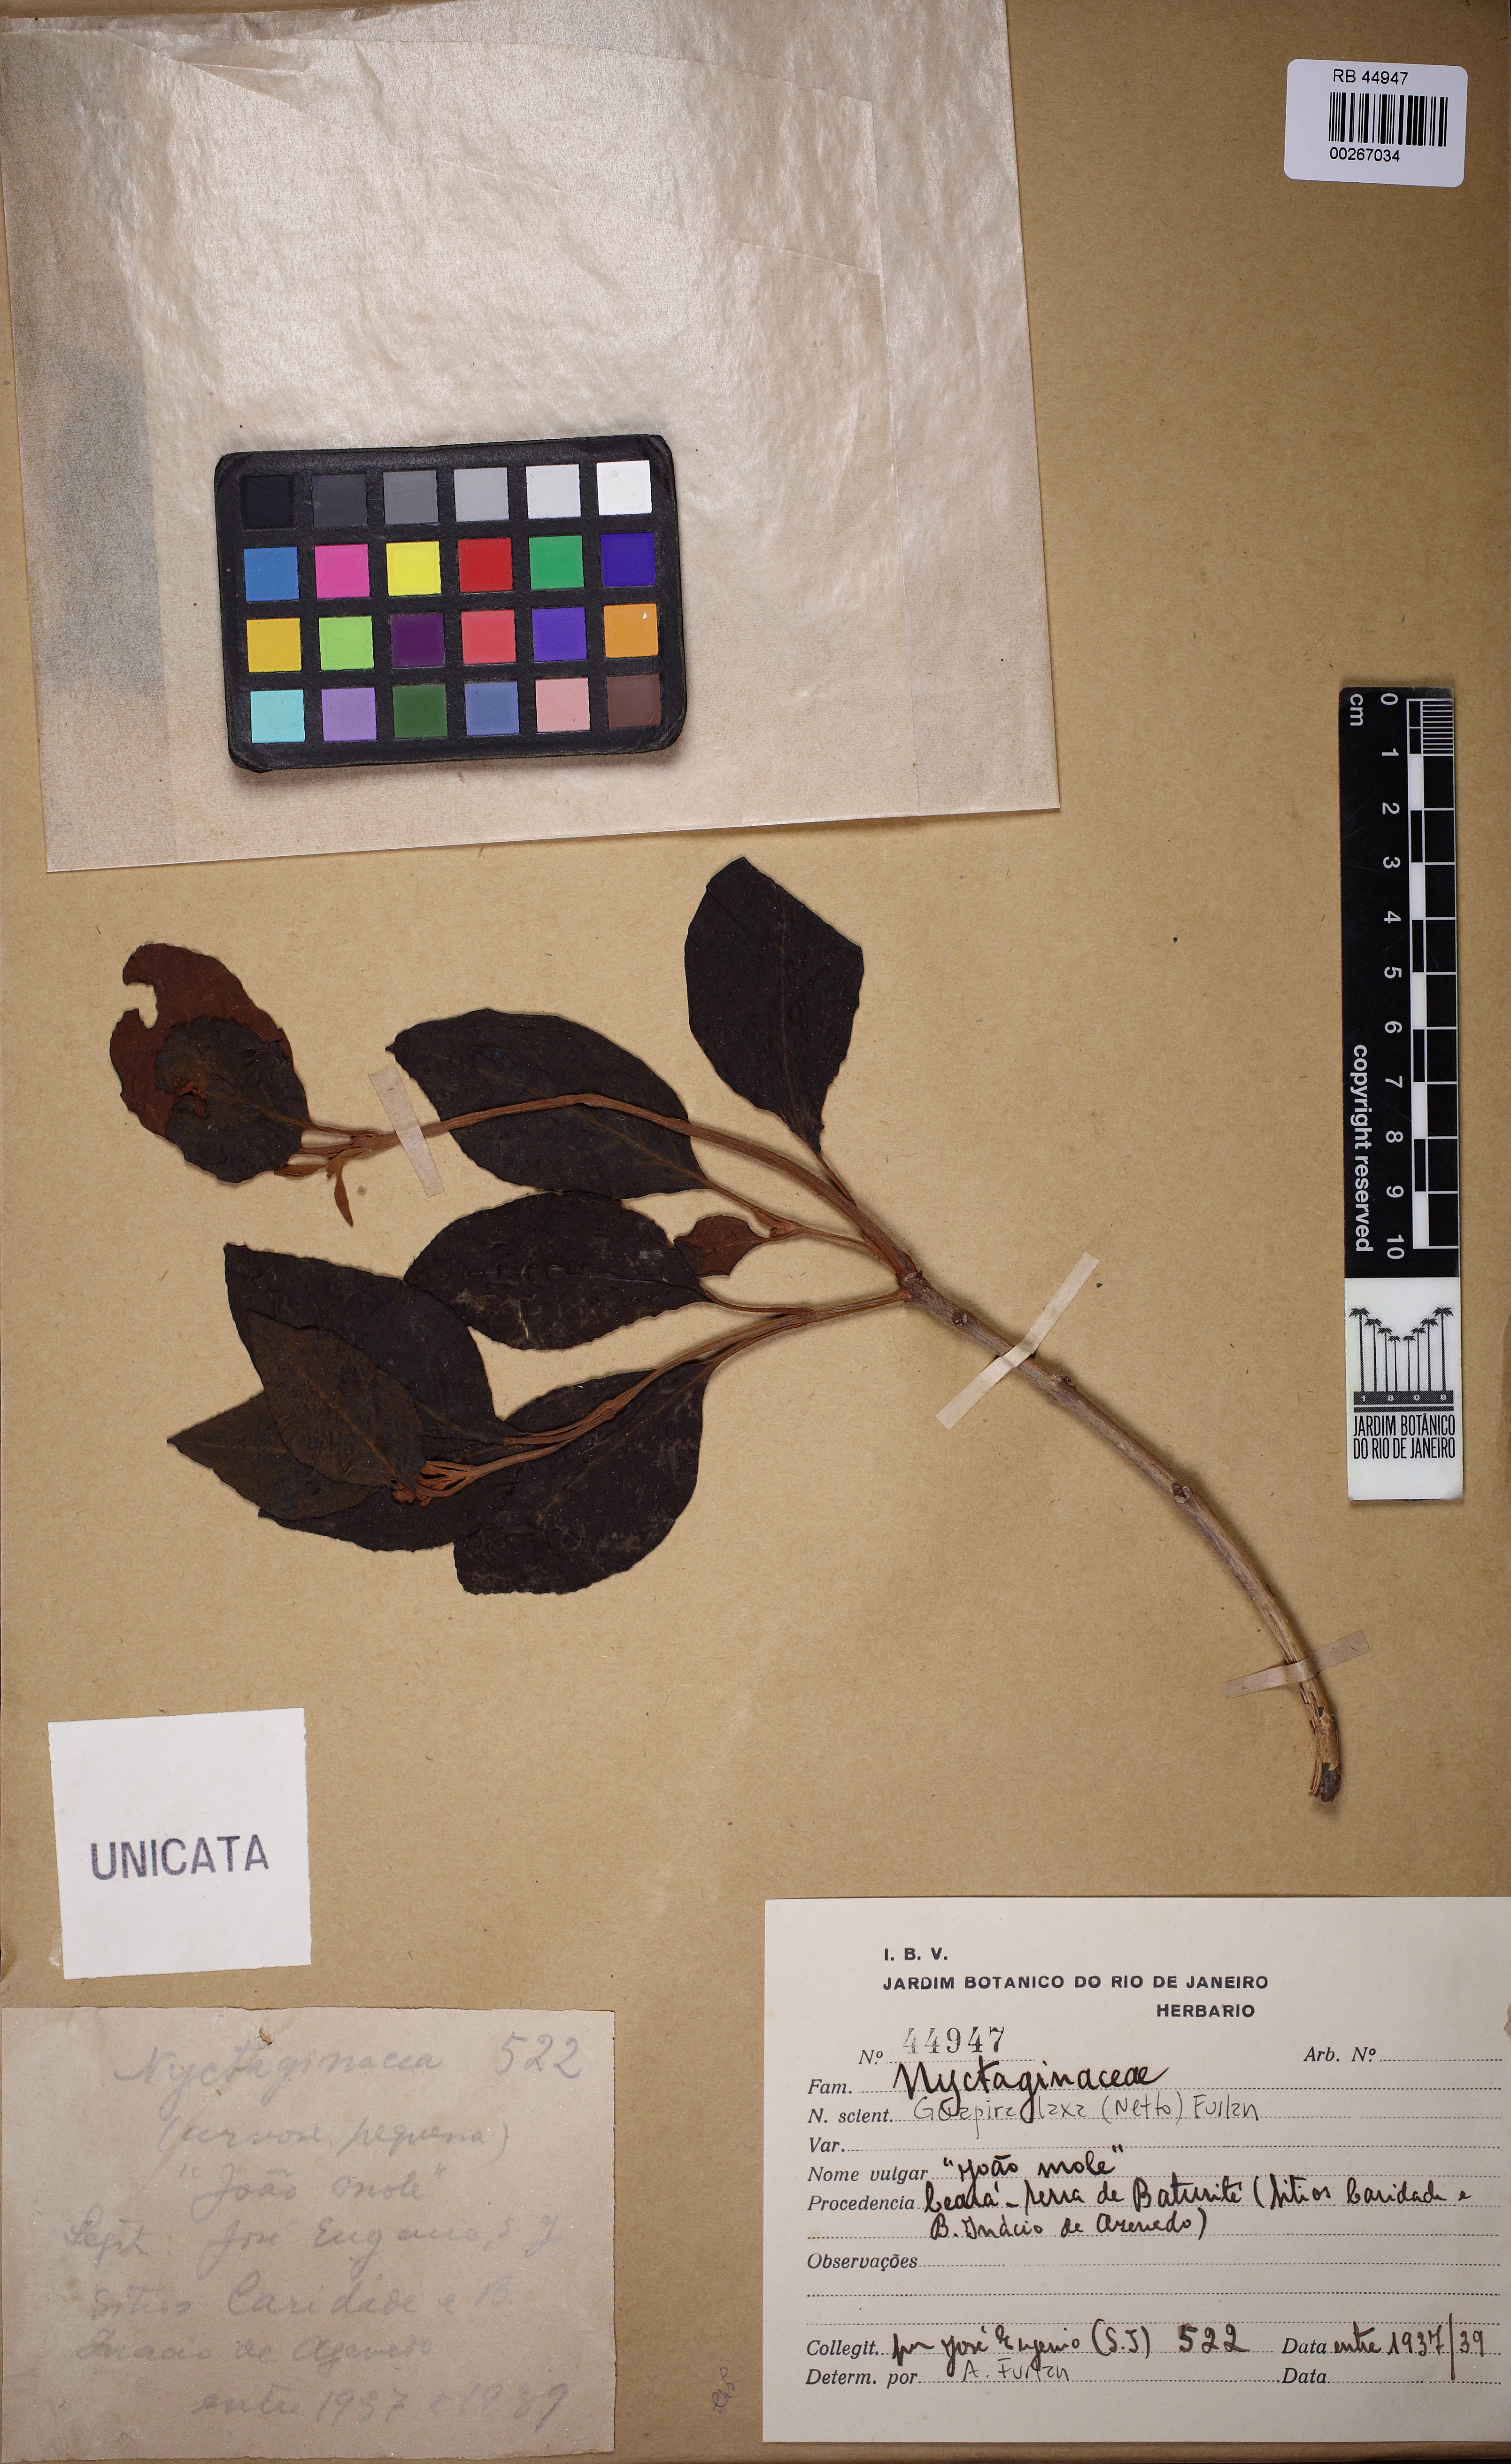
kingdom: Plantae
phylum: Tracheophyta
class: Magnoliopsida
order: Caryophyllales
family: Nyctaginaceae
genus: Guapira
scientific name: Guapira laxa
